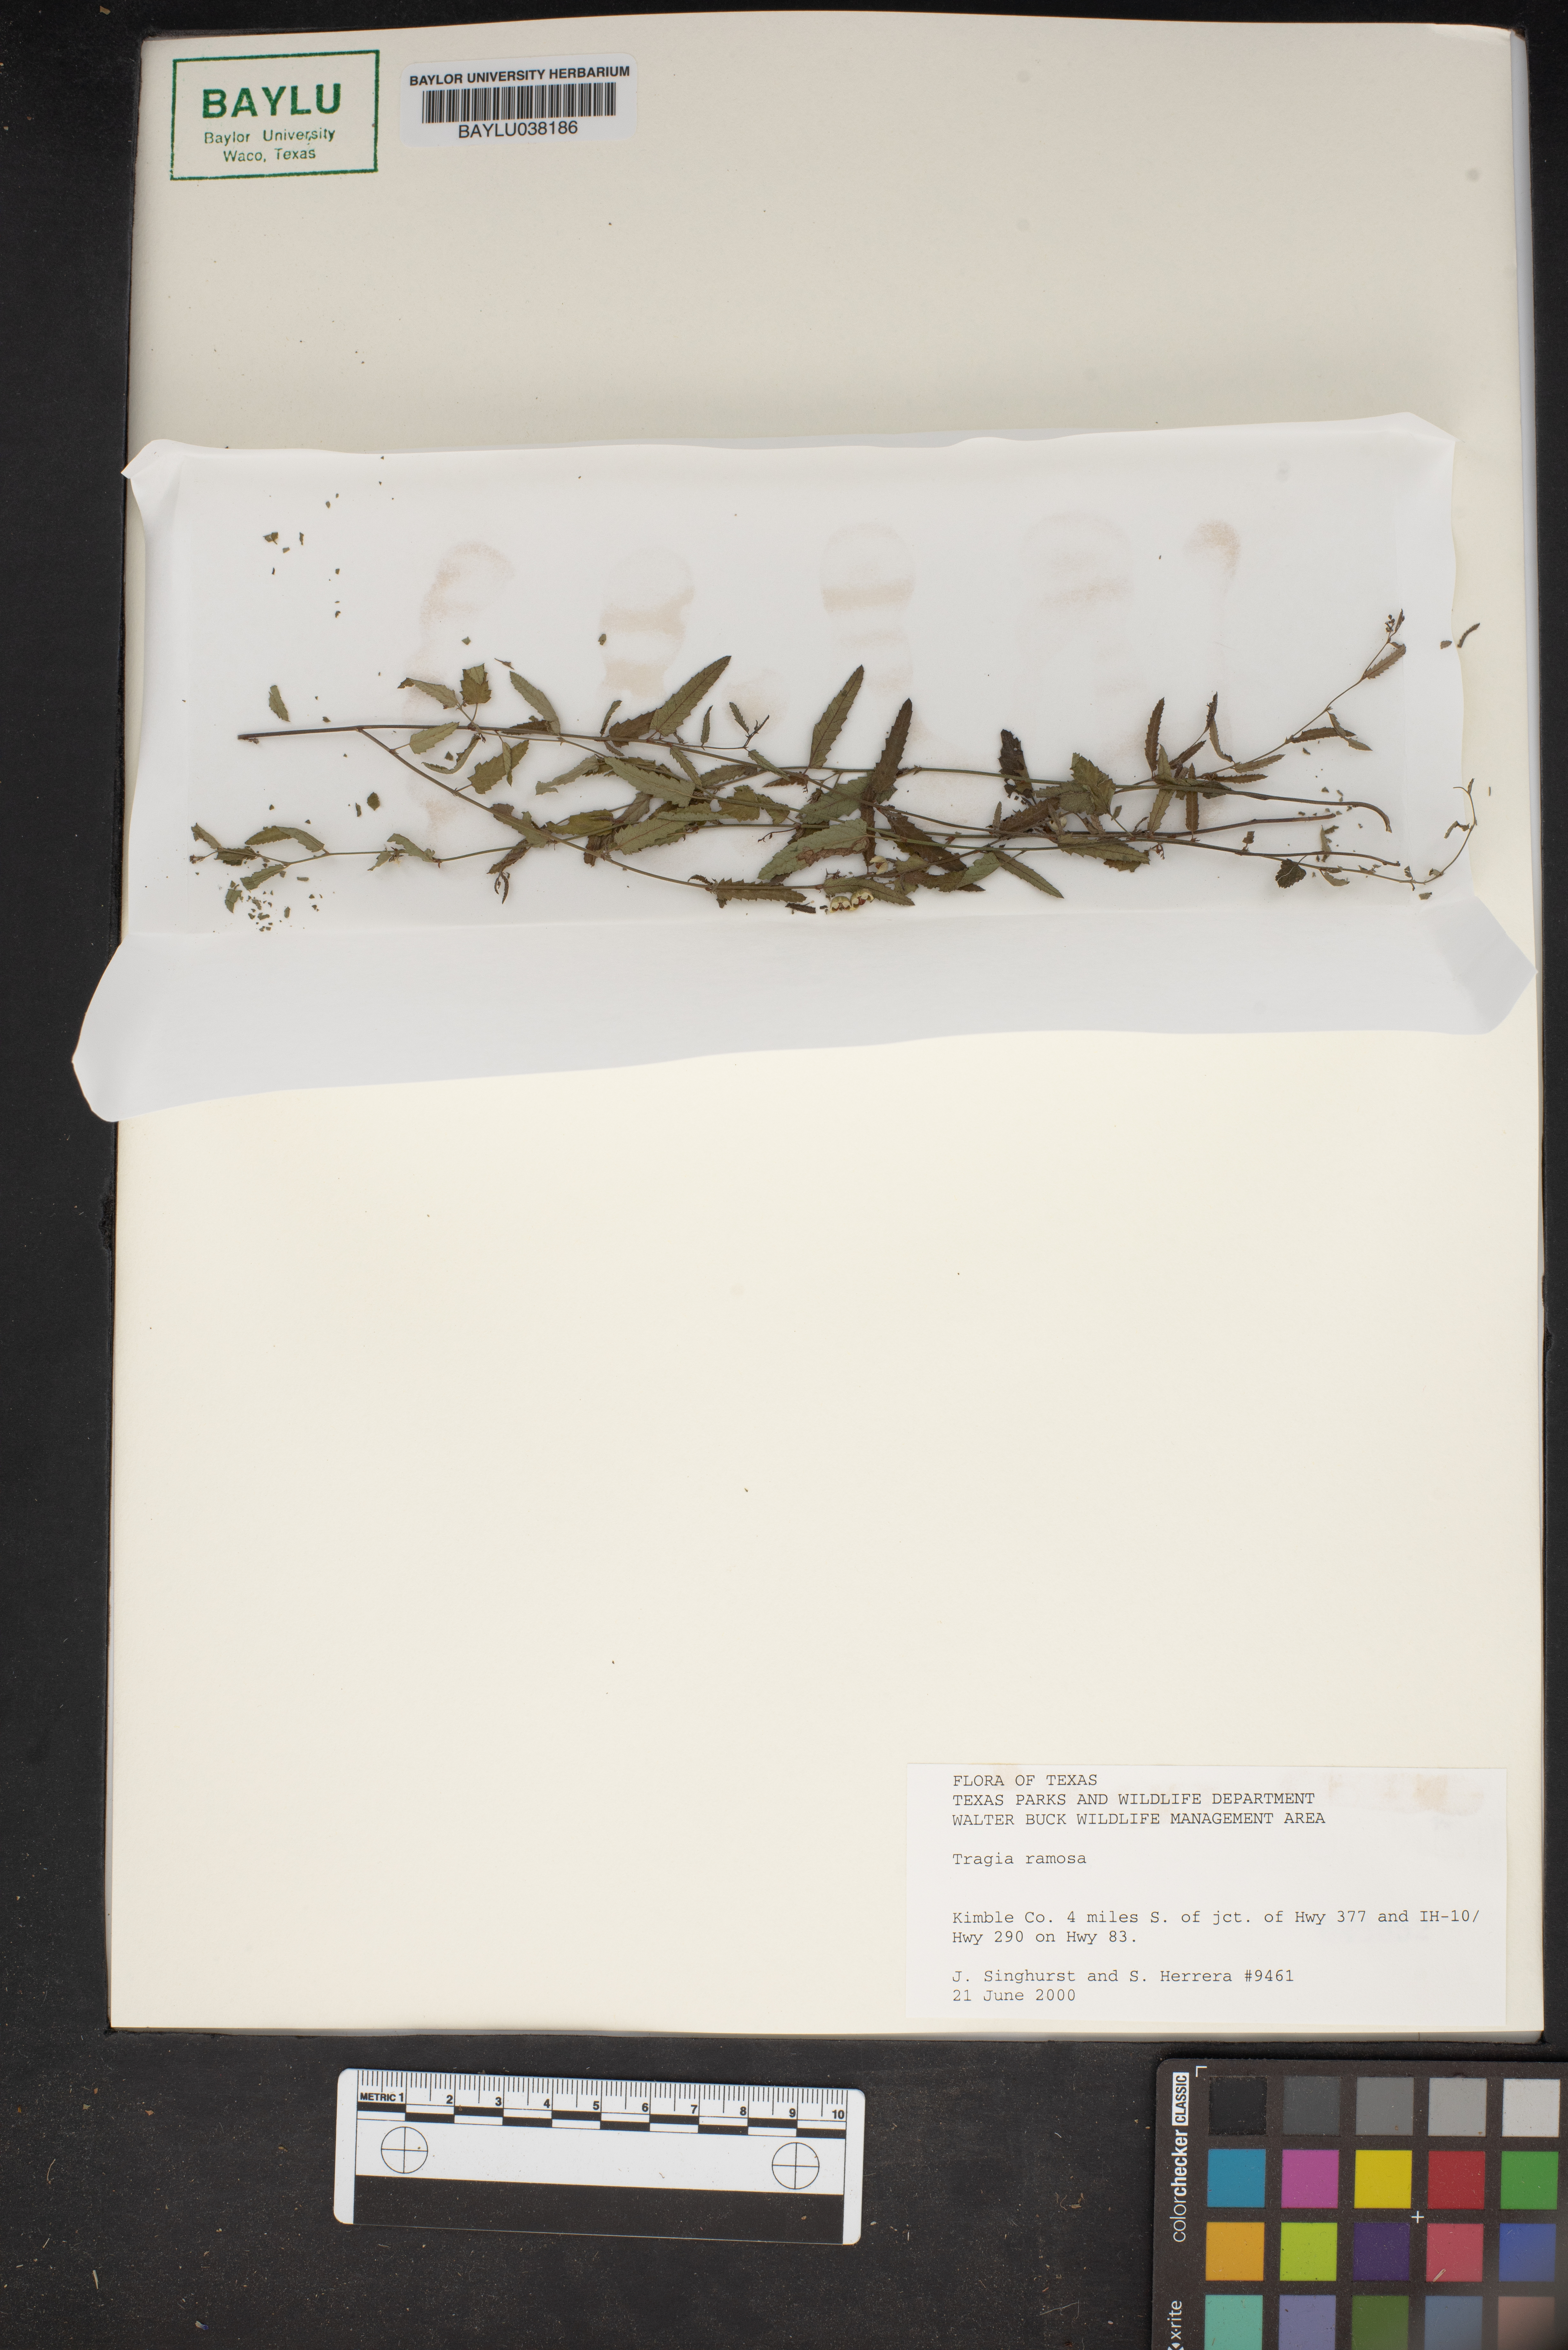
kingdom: Plantae
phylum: Tracheophyta
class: Magnoliopsida
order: Malpighiales
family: Euphorbiaceae
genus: Tragia
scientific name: Tragia ramosa
